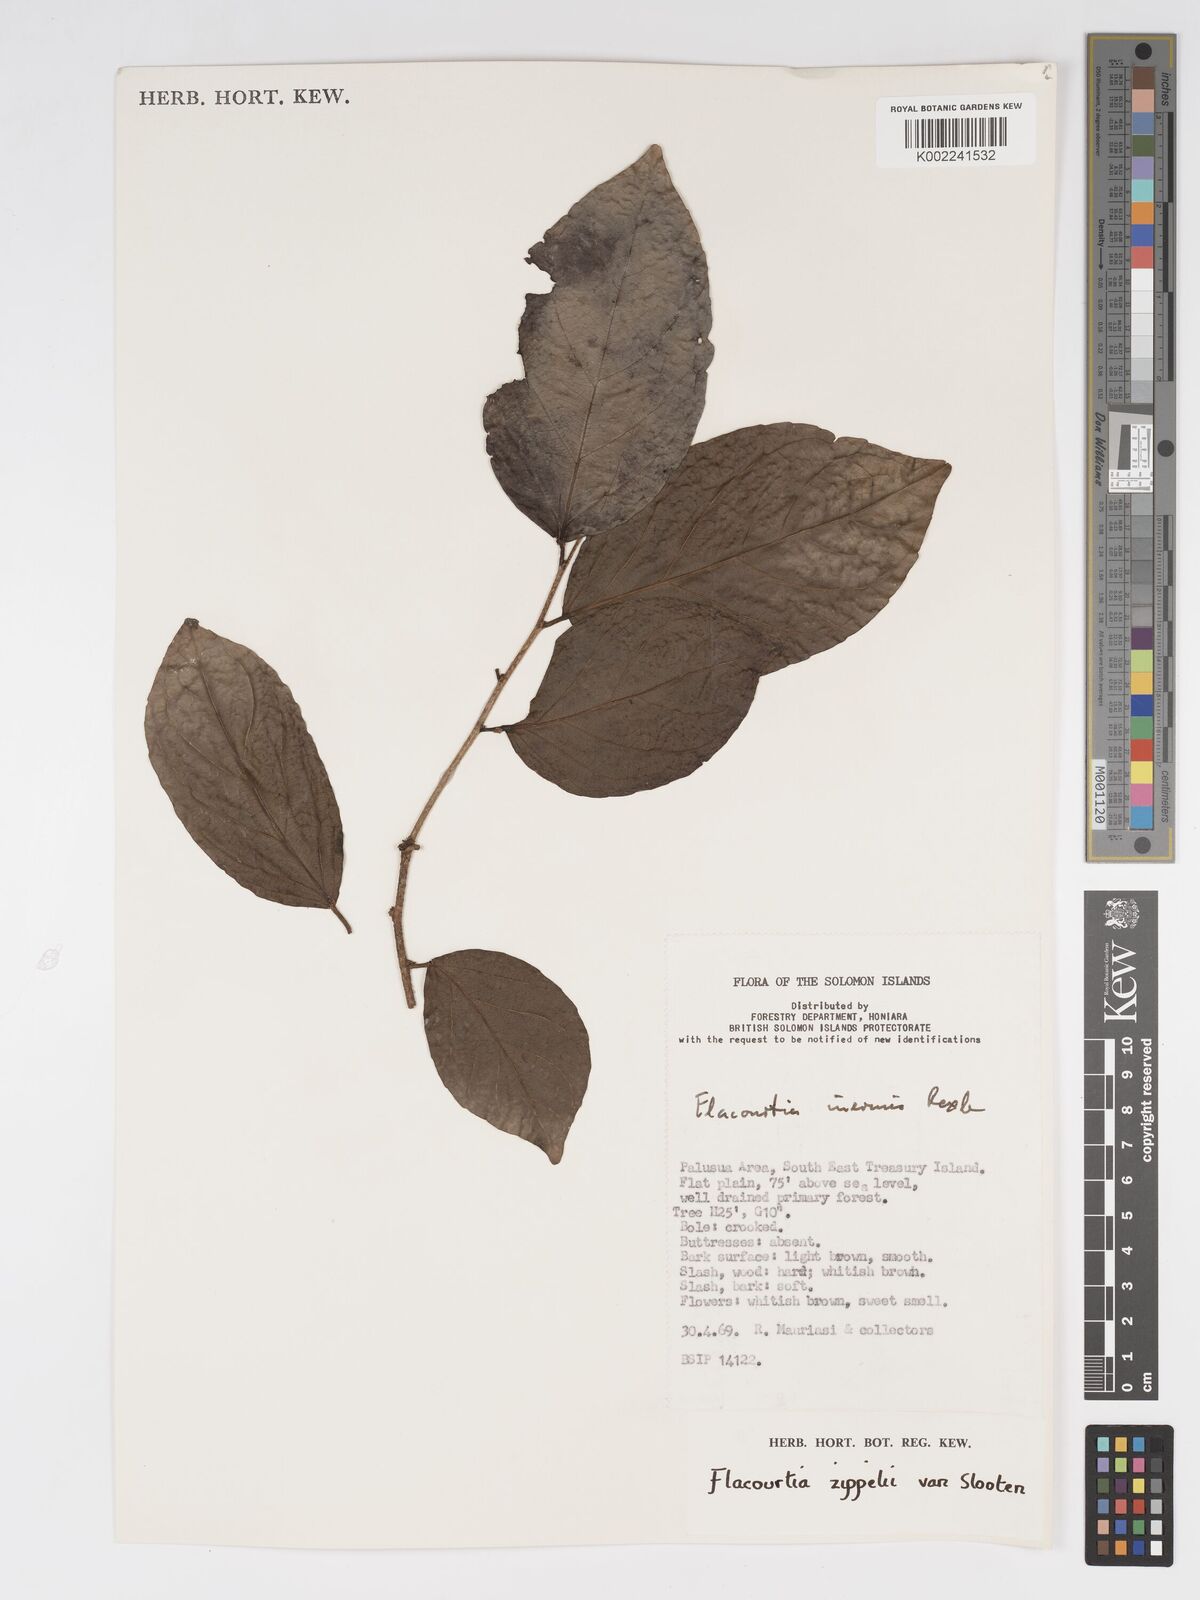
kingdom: Plantae
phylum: Tracheophyta
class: Magnoliopsida
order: Malpighiales
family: Salicaceae
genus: Flacourtia
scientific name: Flacourtia zippelii
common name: Zippeli plum
